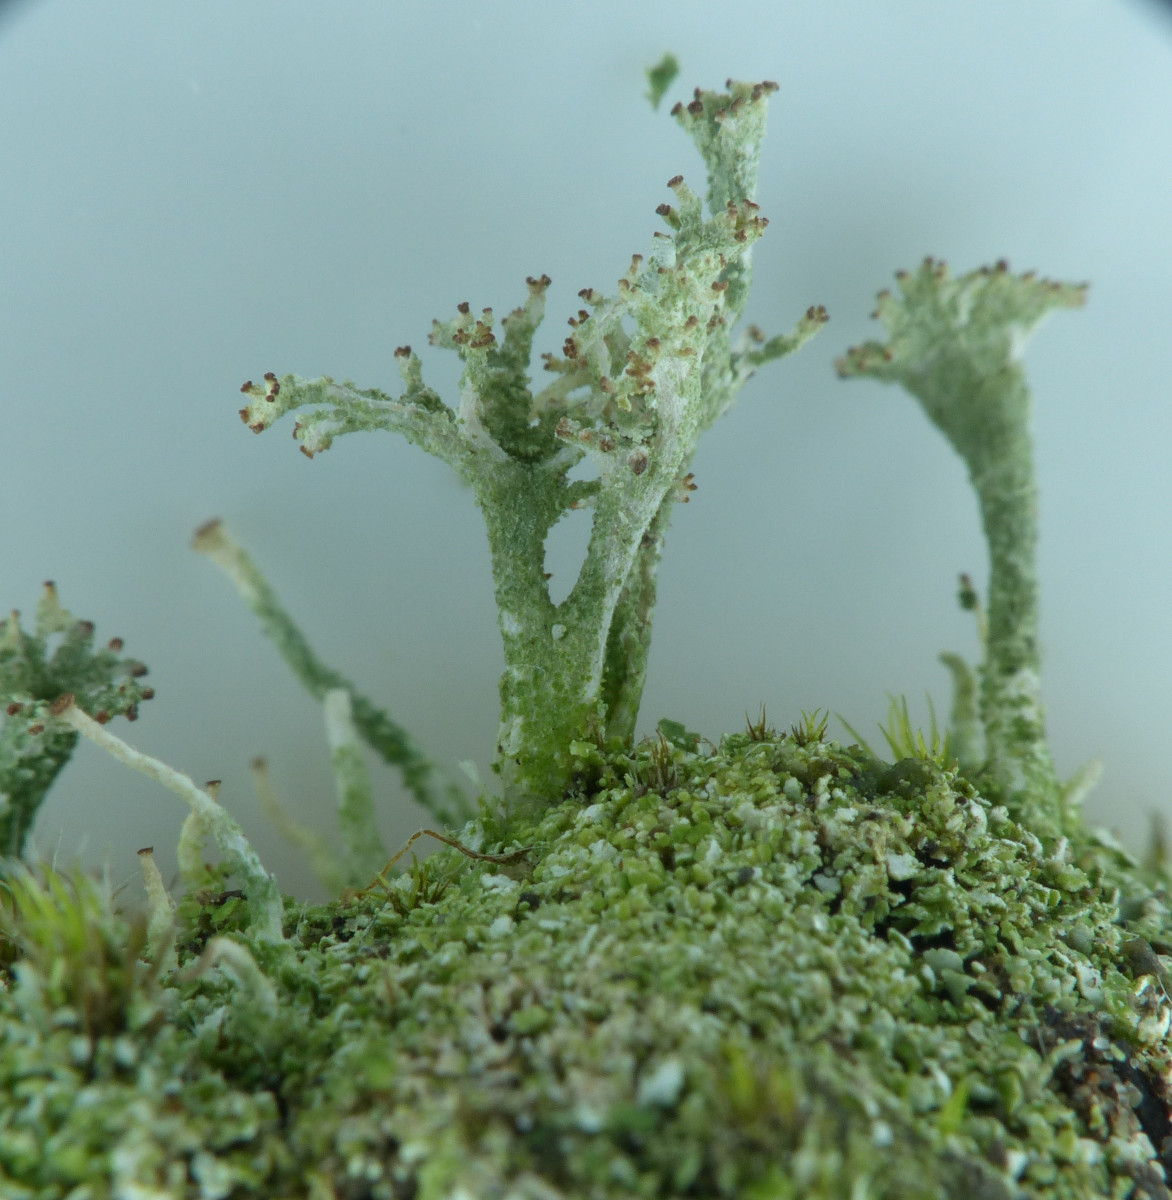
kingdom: Fungi
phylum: Ascomycota
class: Lecanoromycetes
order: Lecanorales
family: Cladoniaceae
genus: Cladonia
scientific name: Cladonia ramulosa
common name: kliddet bægerlav
